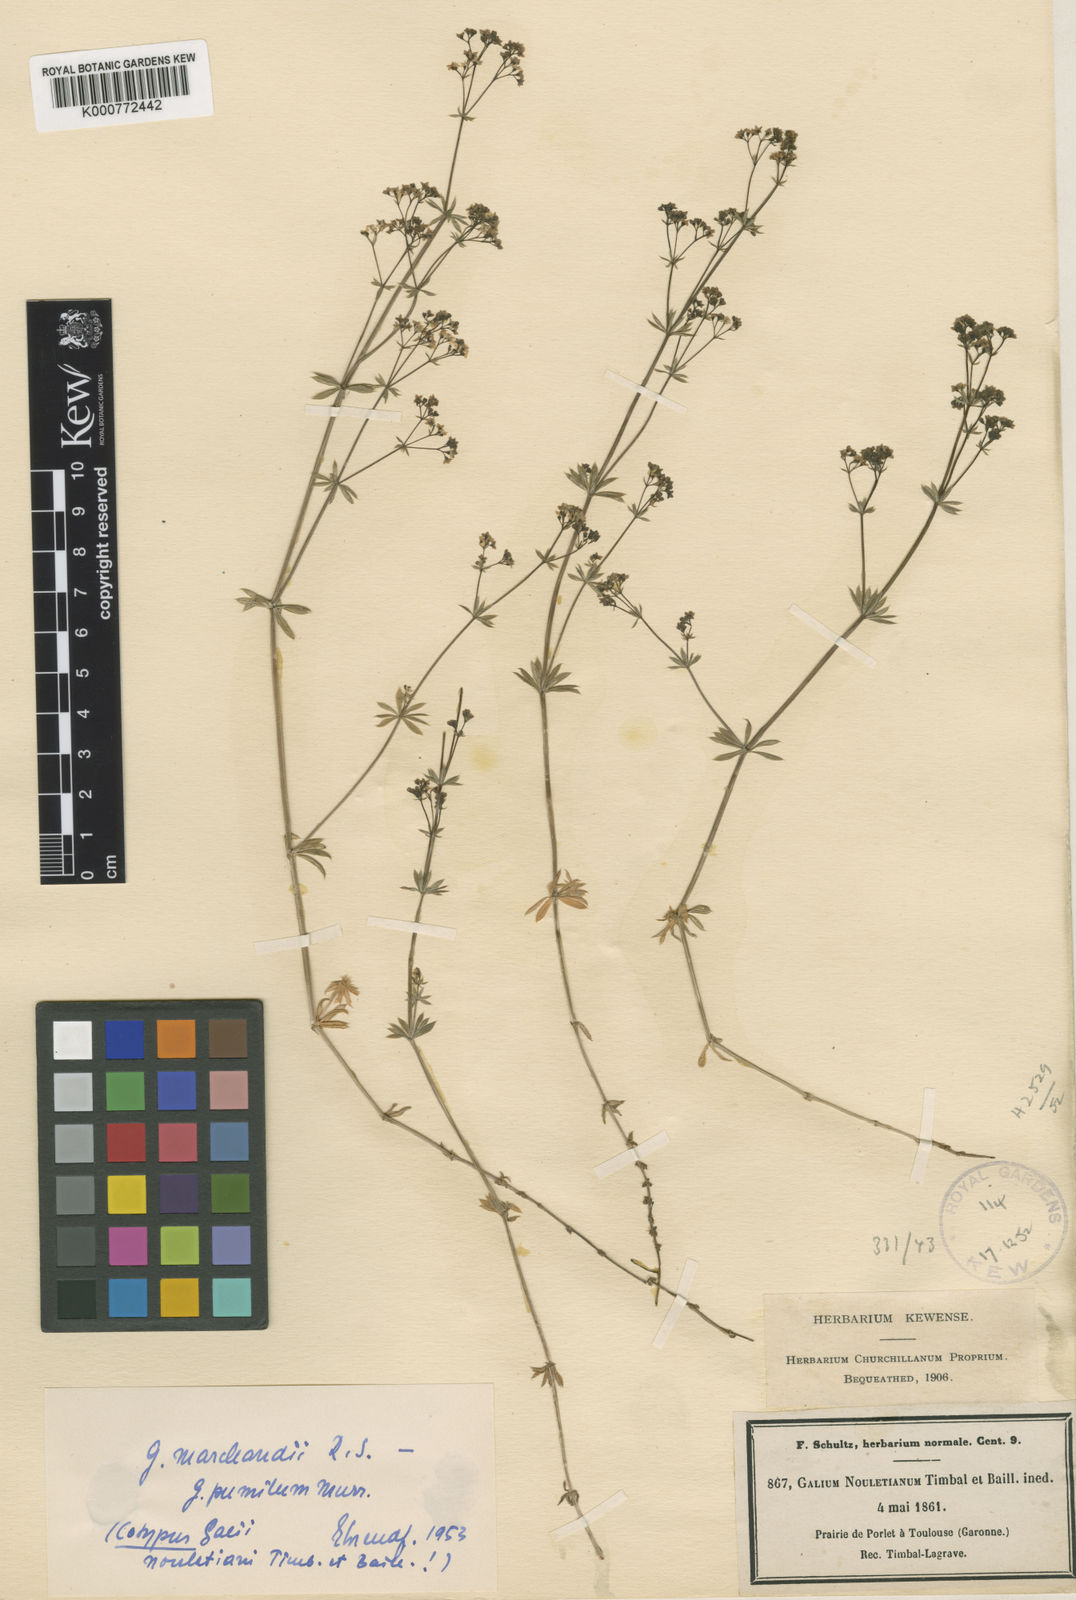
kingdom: Plantae
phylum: Tracheophyta
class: Magnoliopsida
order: Gentianales
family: Rubiaceae
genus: Galium
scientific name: Galium pumilum
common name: Slender bedstraw
